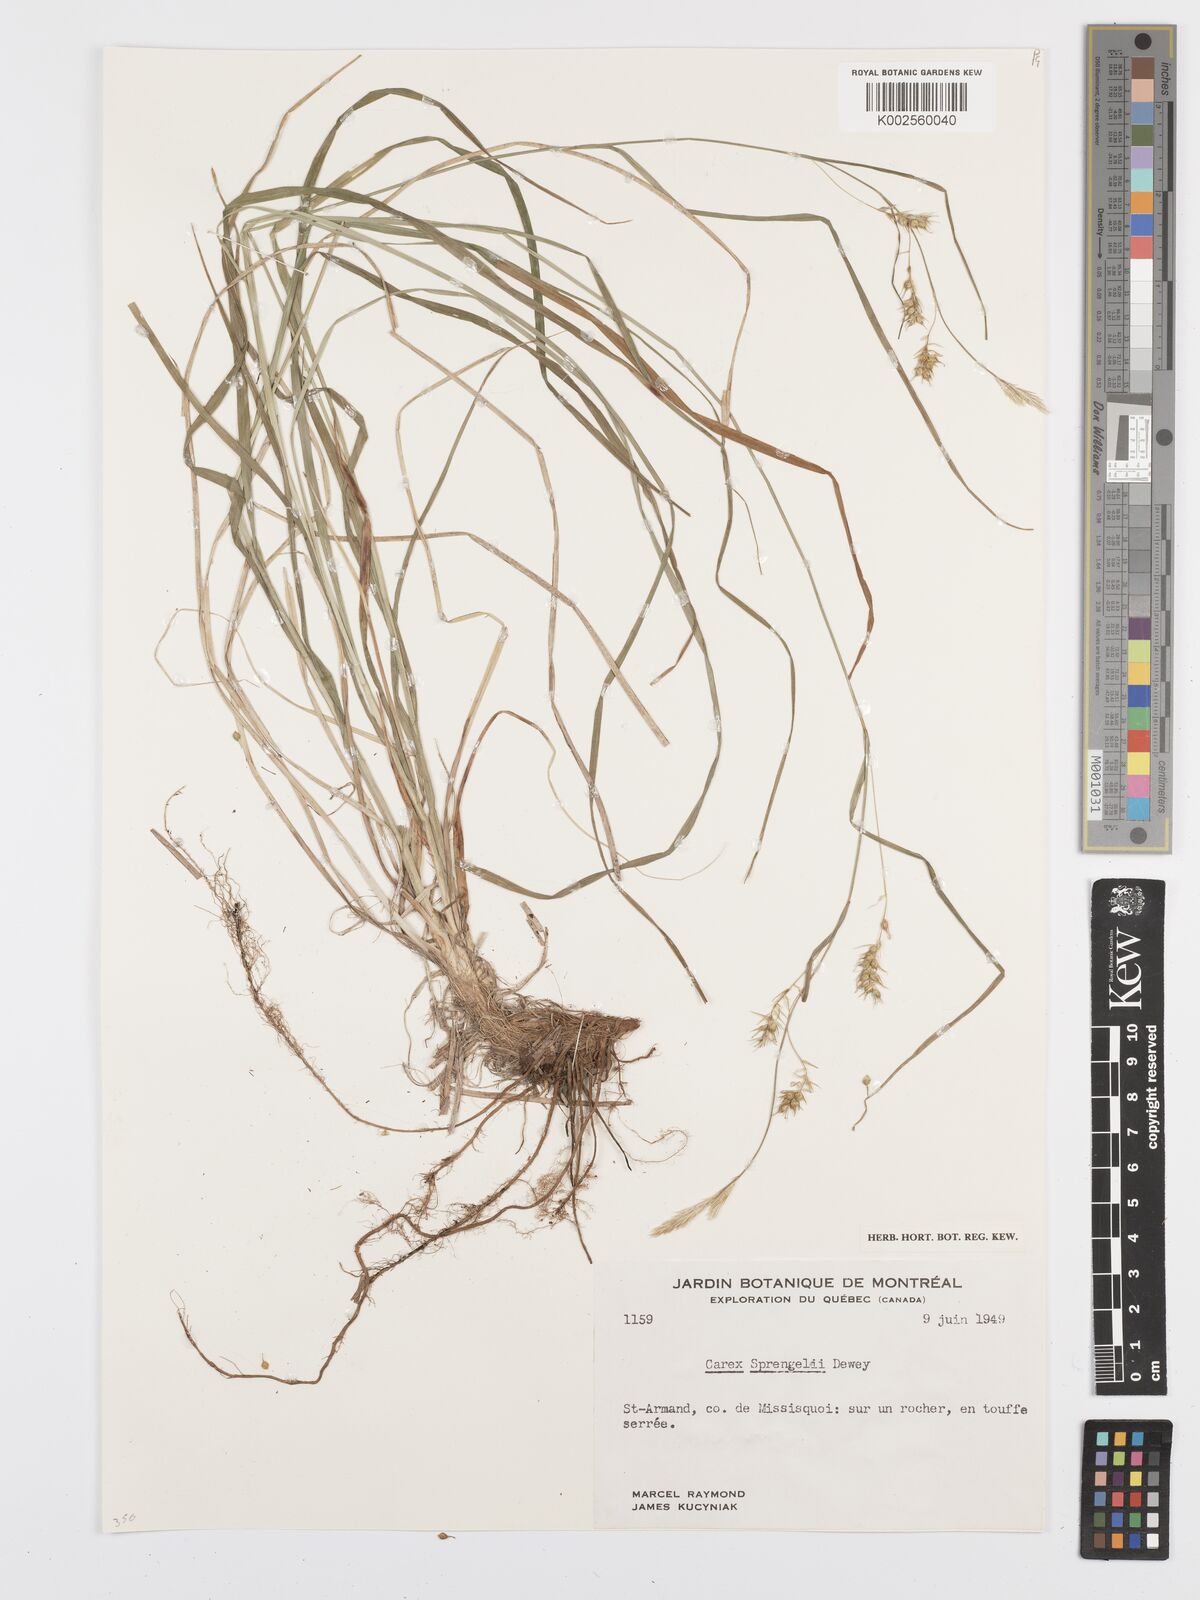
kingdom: Plantae
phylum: Tracheophyta
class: Liliopsida
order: Poales
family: Cyperaceae
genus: Carex
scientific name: Carex sprengelii
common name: Long-beaked sedge
